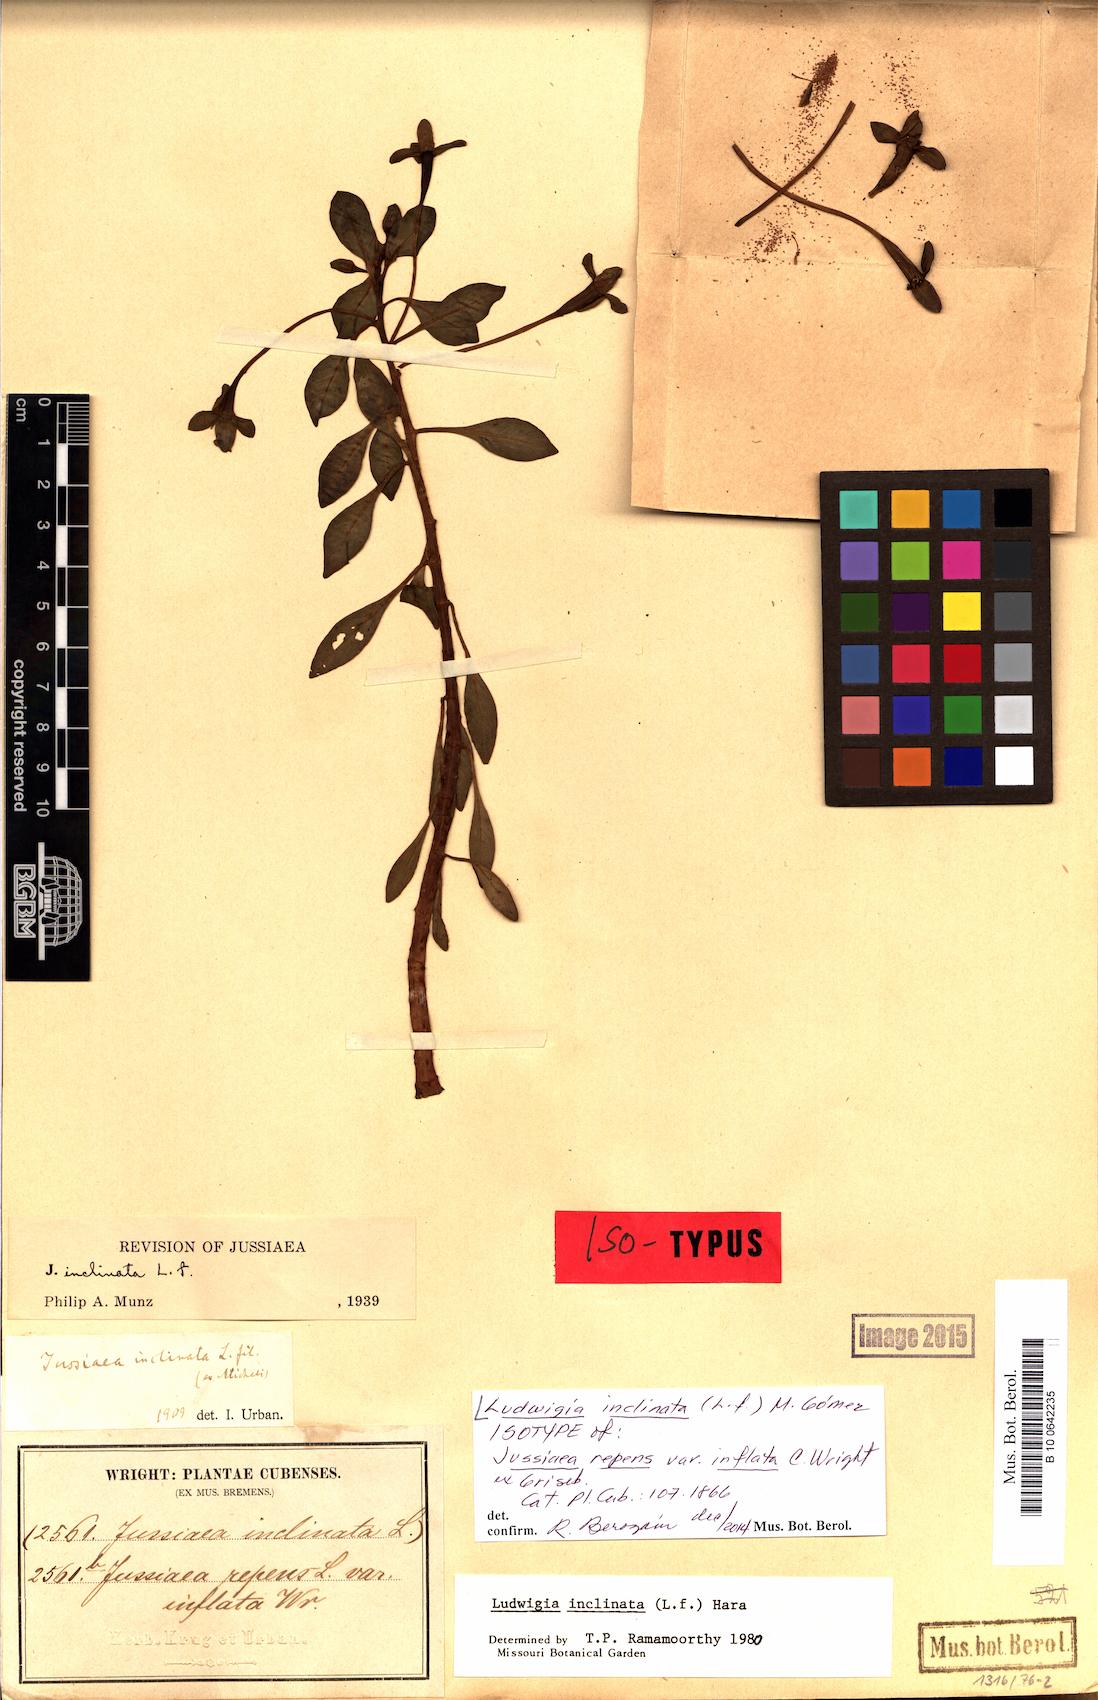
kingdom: Plantae
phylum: Tracheophyta
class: Magnoliopsida
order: Myrtales
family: Onagraceae
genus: Ludwigia
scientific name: Ludwigia inclinata
